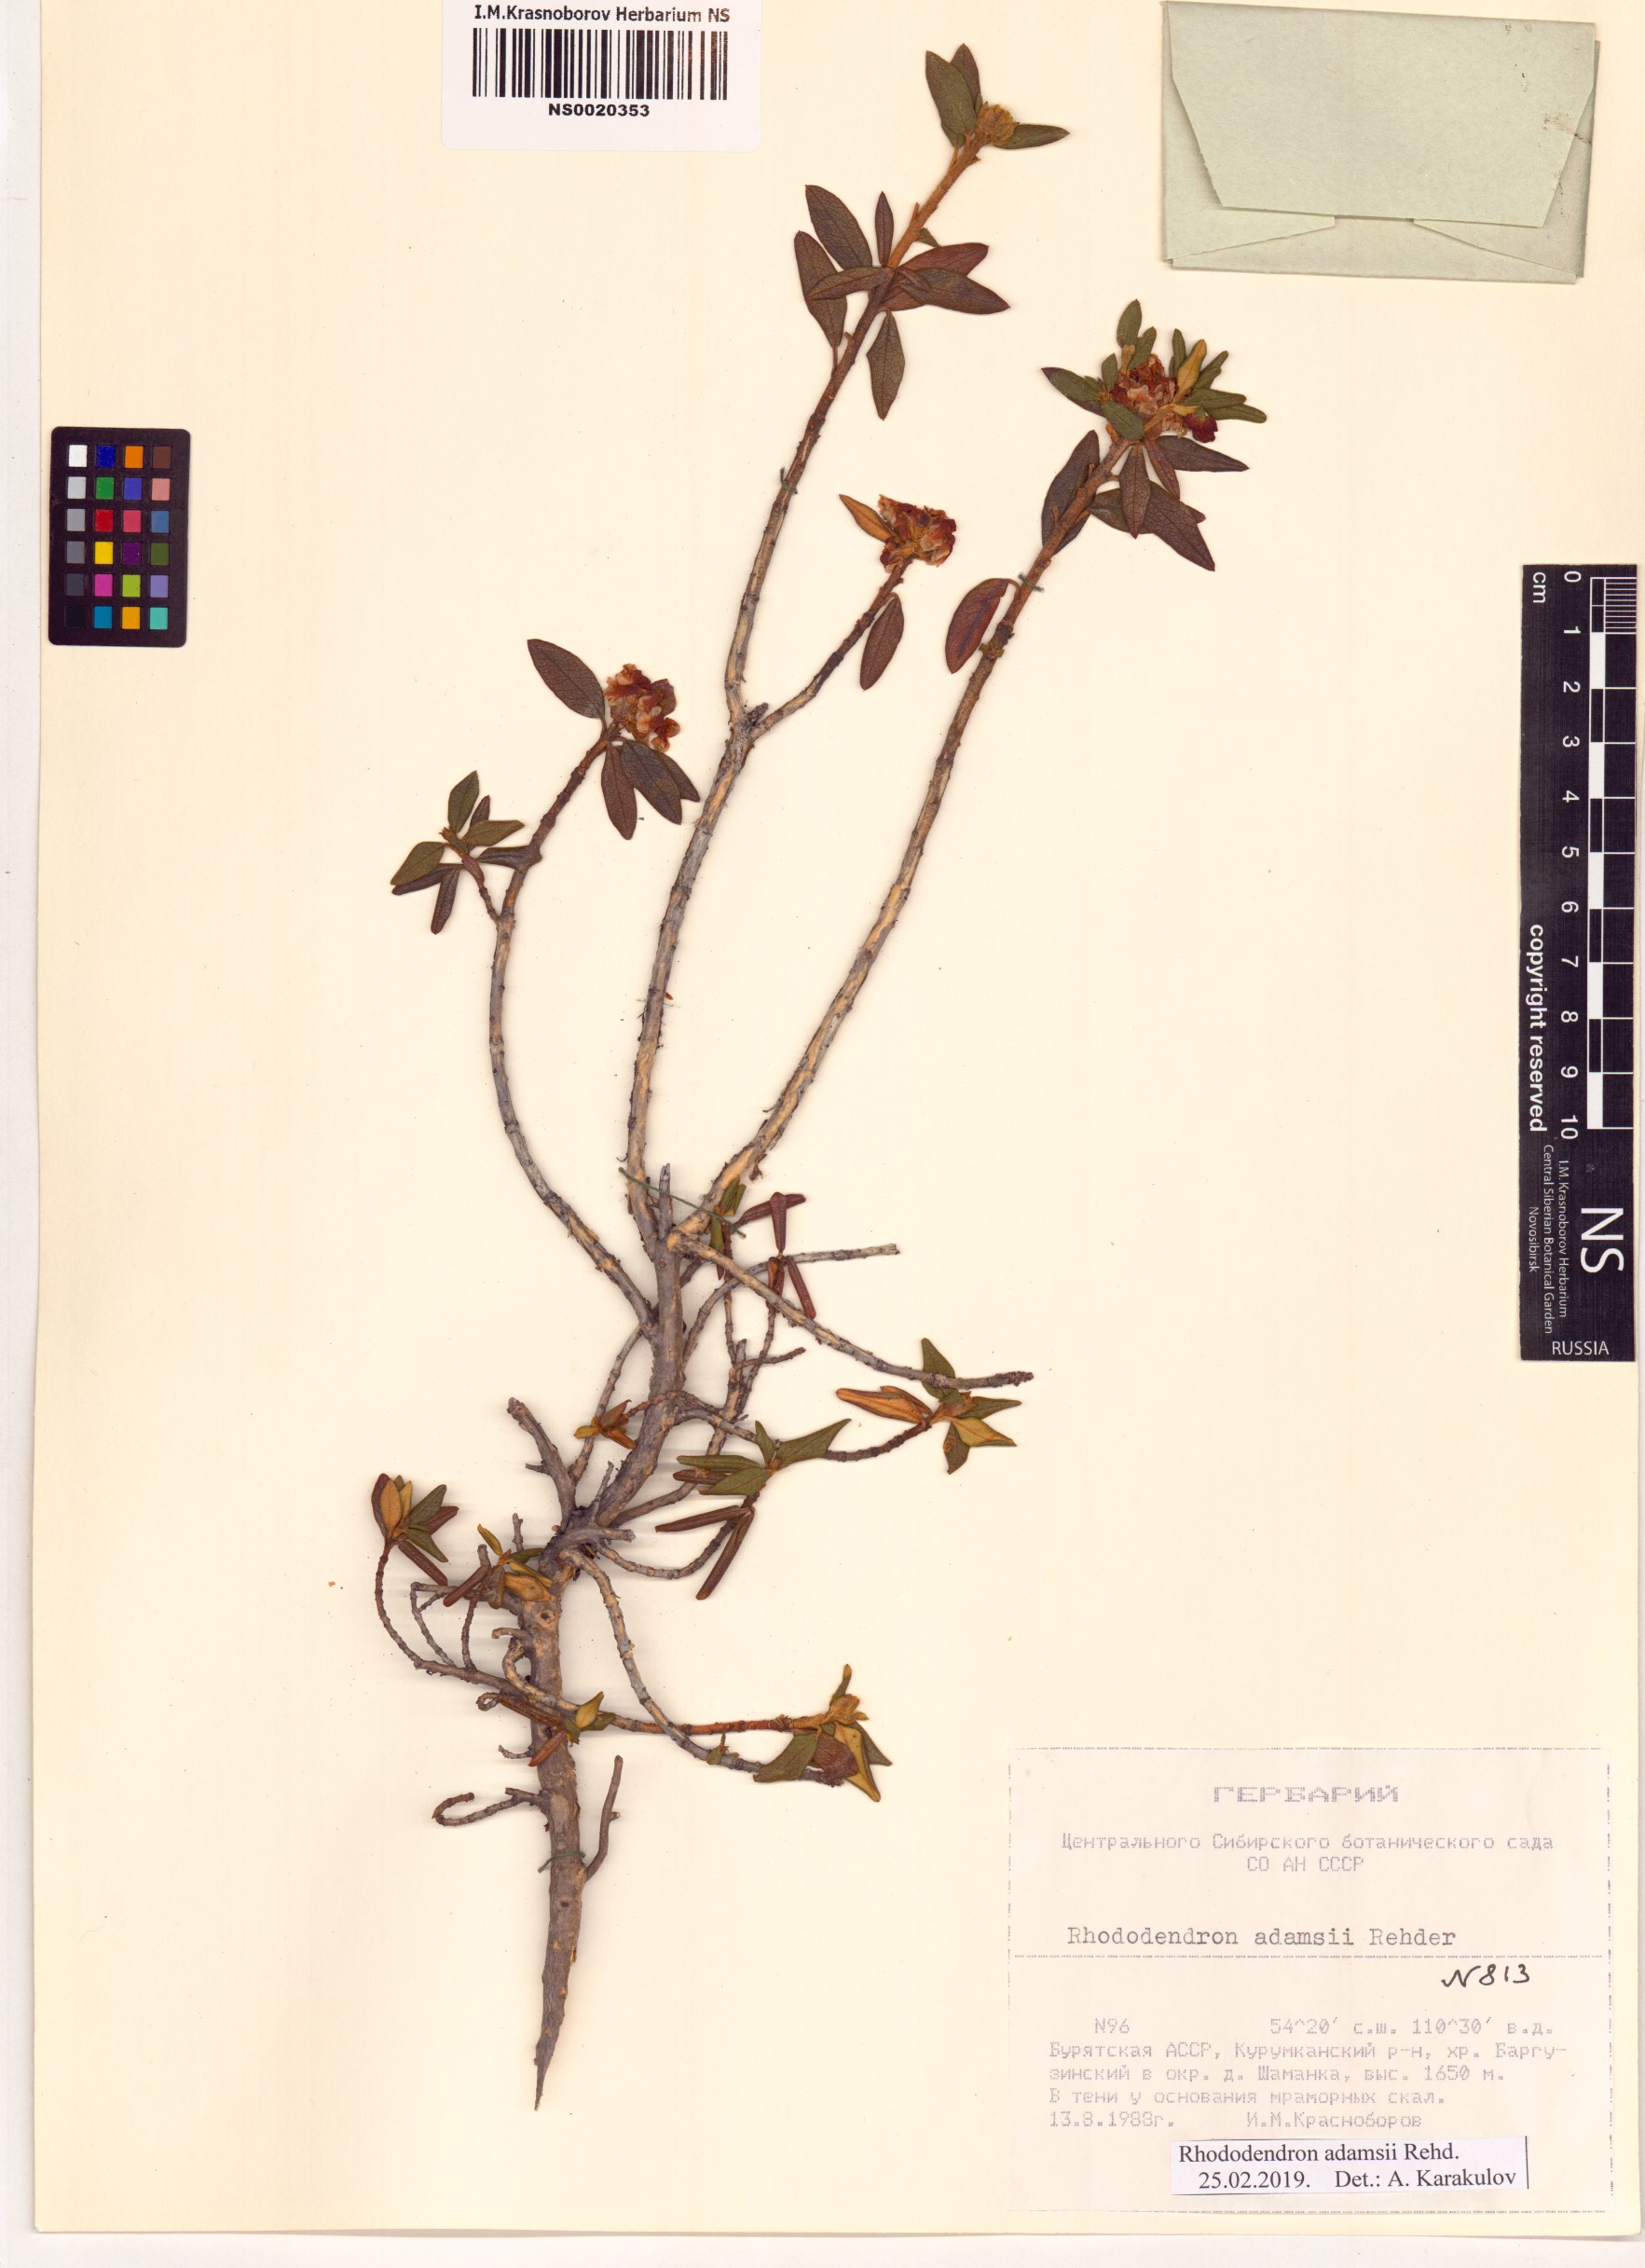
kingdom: Plantae
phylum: Tracheophyta
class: Magnoliopsida
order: Ericales
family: Ericaceae
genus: Rhododendron
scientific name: Rhododendron adamsii
